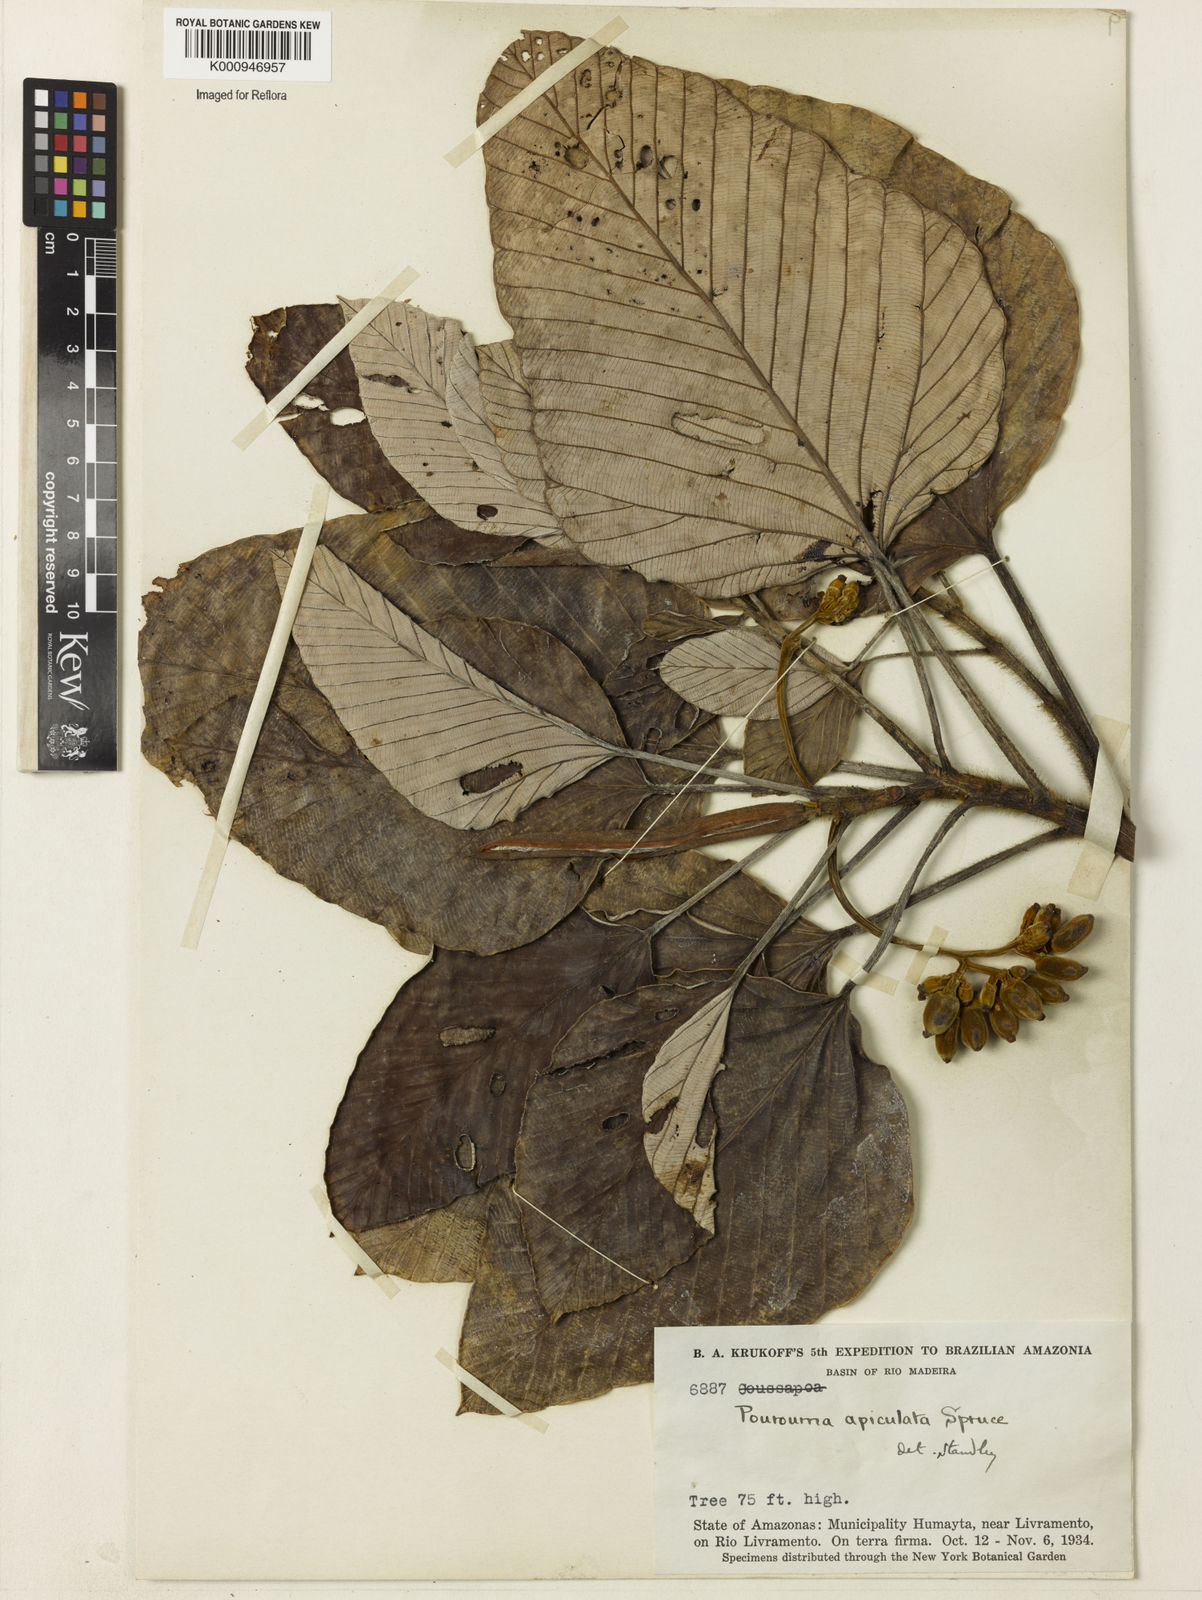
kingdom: Plantae
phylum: Tracheophyta
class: Magnoliopsida
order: Rosales
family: Urticaceae
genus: Pourouma
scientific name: Pourouma tomentosa
